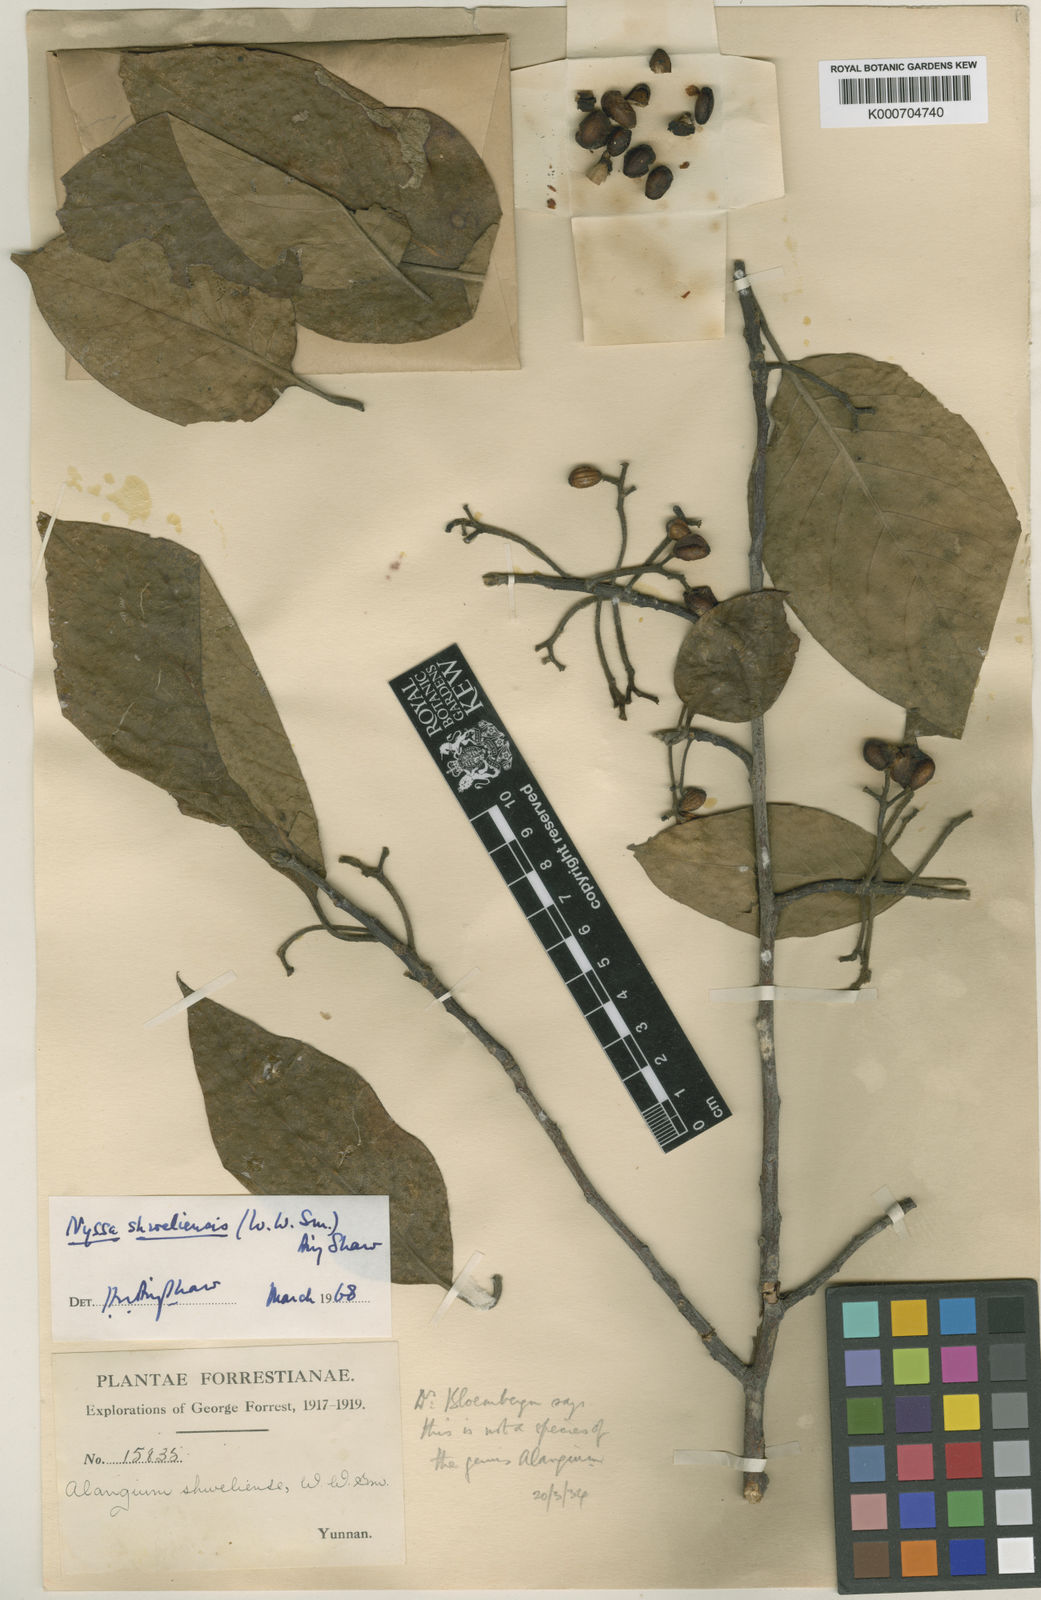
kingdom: Plantae
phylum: Tracheophyta
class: Magnoliopsida
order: Cornales
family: Nyssaceae
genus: Nyssa
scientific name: Nyssa sinensis
